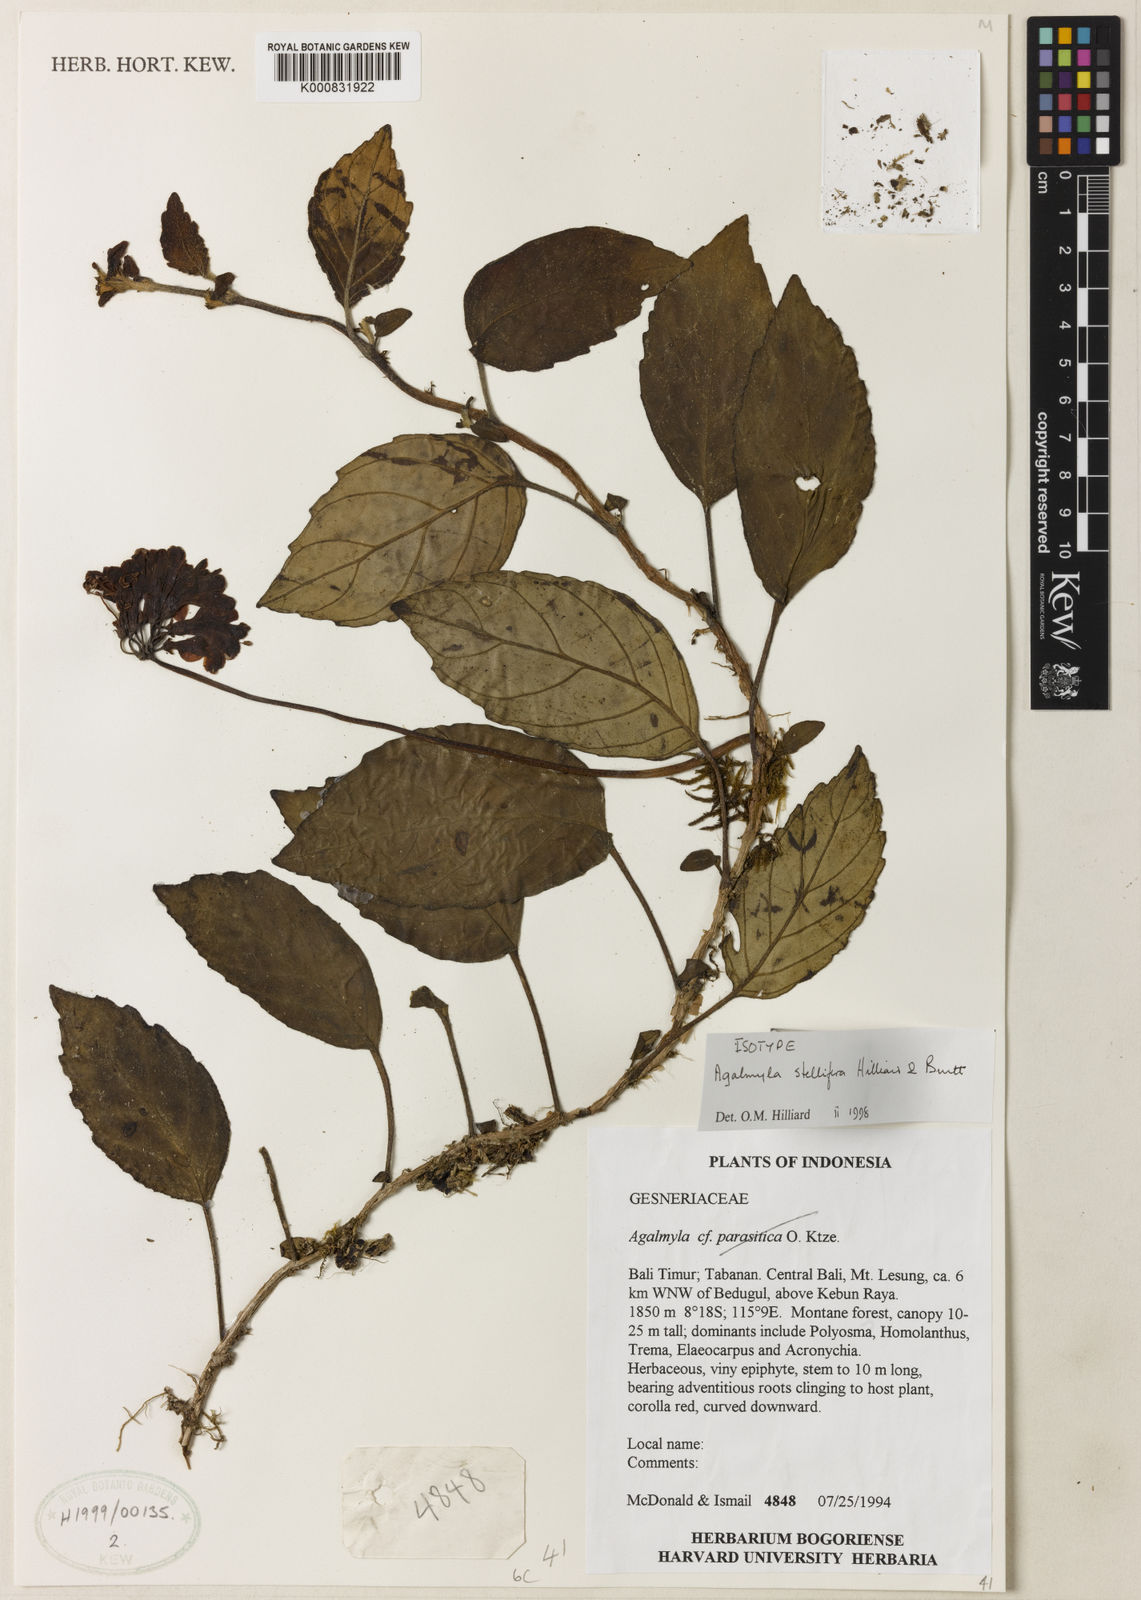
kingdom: Plantae
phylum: Tracheophyta
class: Magnoliopsida
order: Lamiales
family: Gesneriaceae
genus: Agalmyla
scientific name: Agalmyla stellifera
